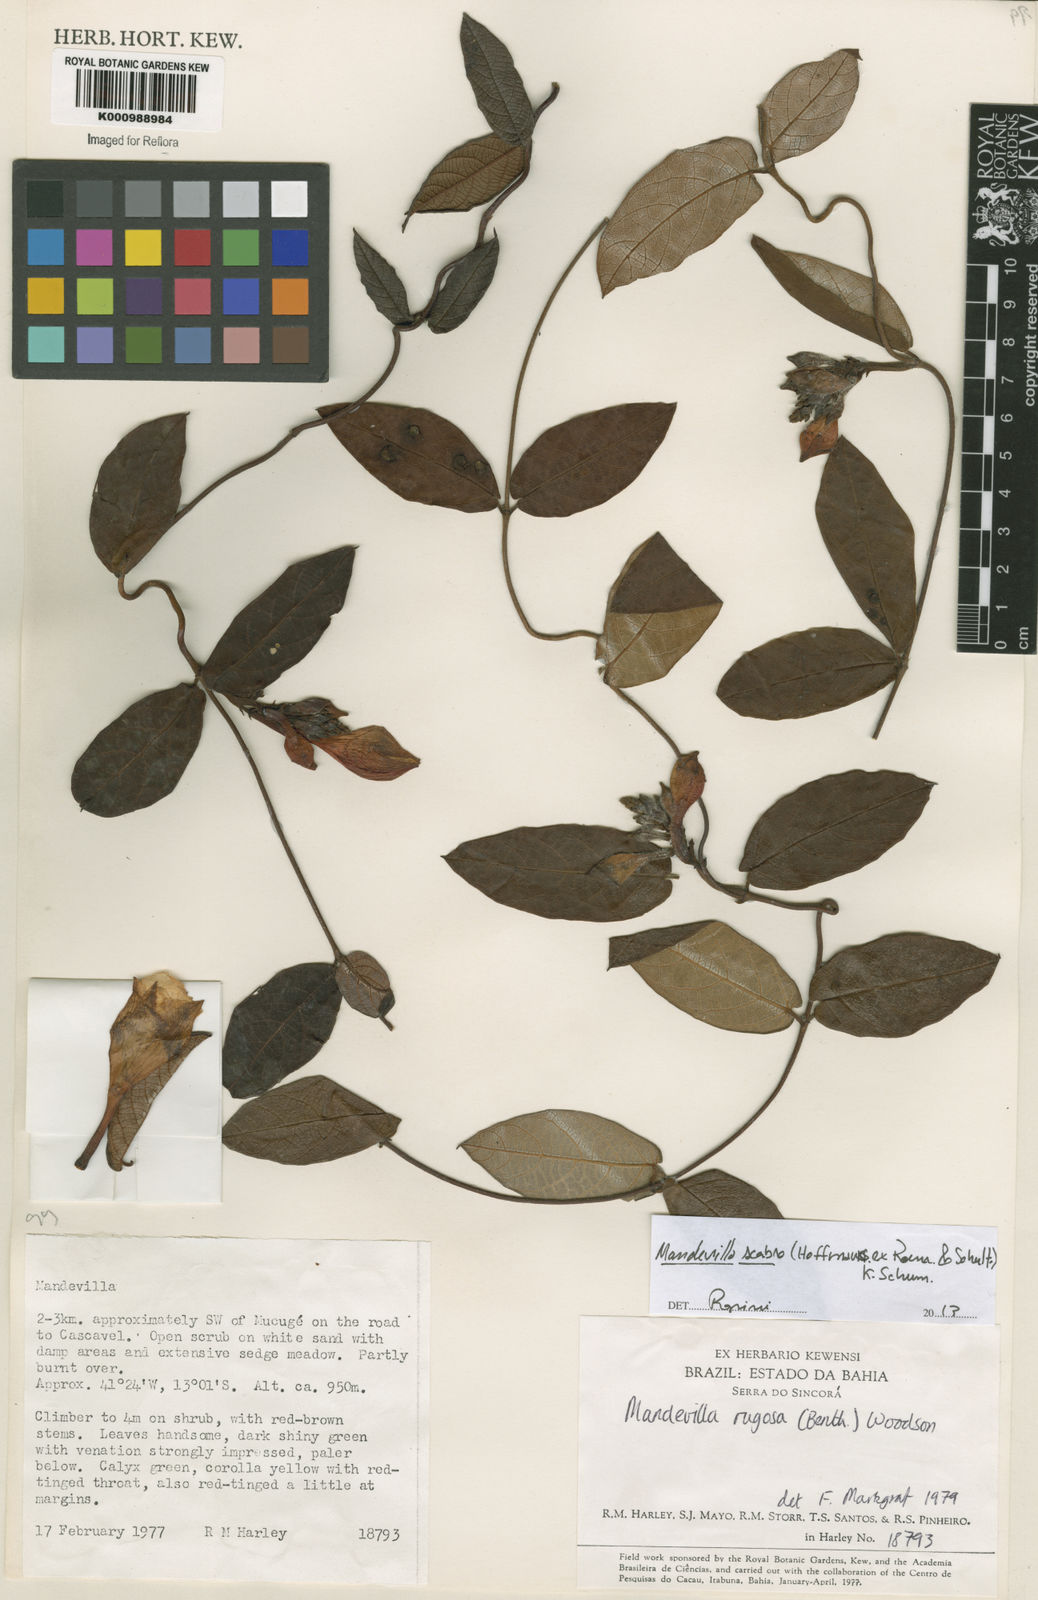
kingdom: Plantae
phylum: Tracheophyta
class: Magnoliopsida
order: Gentianales
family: Apocynaceae
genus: Mandevilla
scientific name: Mandevilla rugosa
